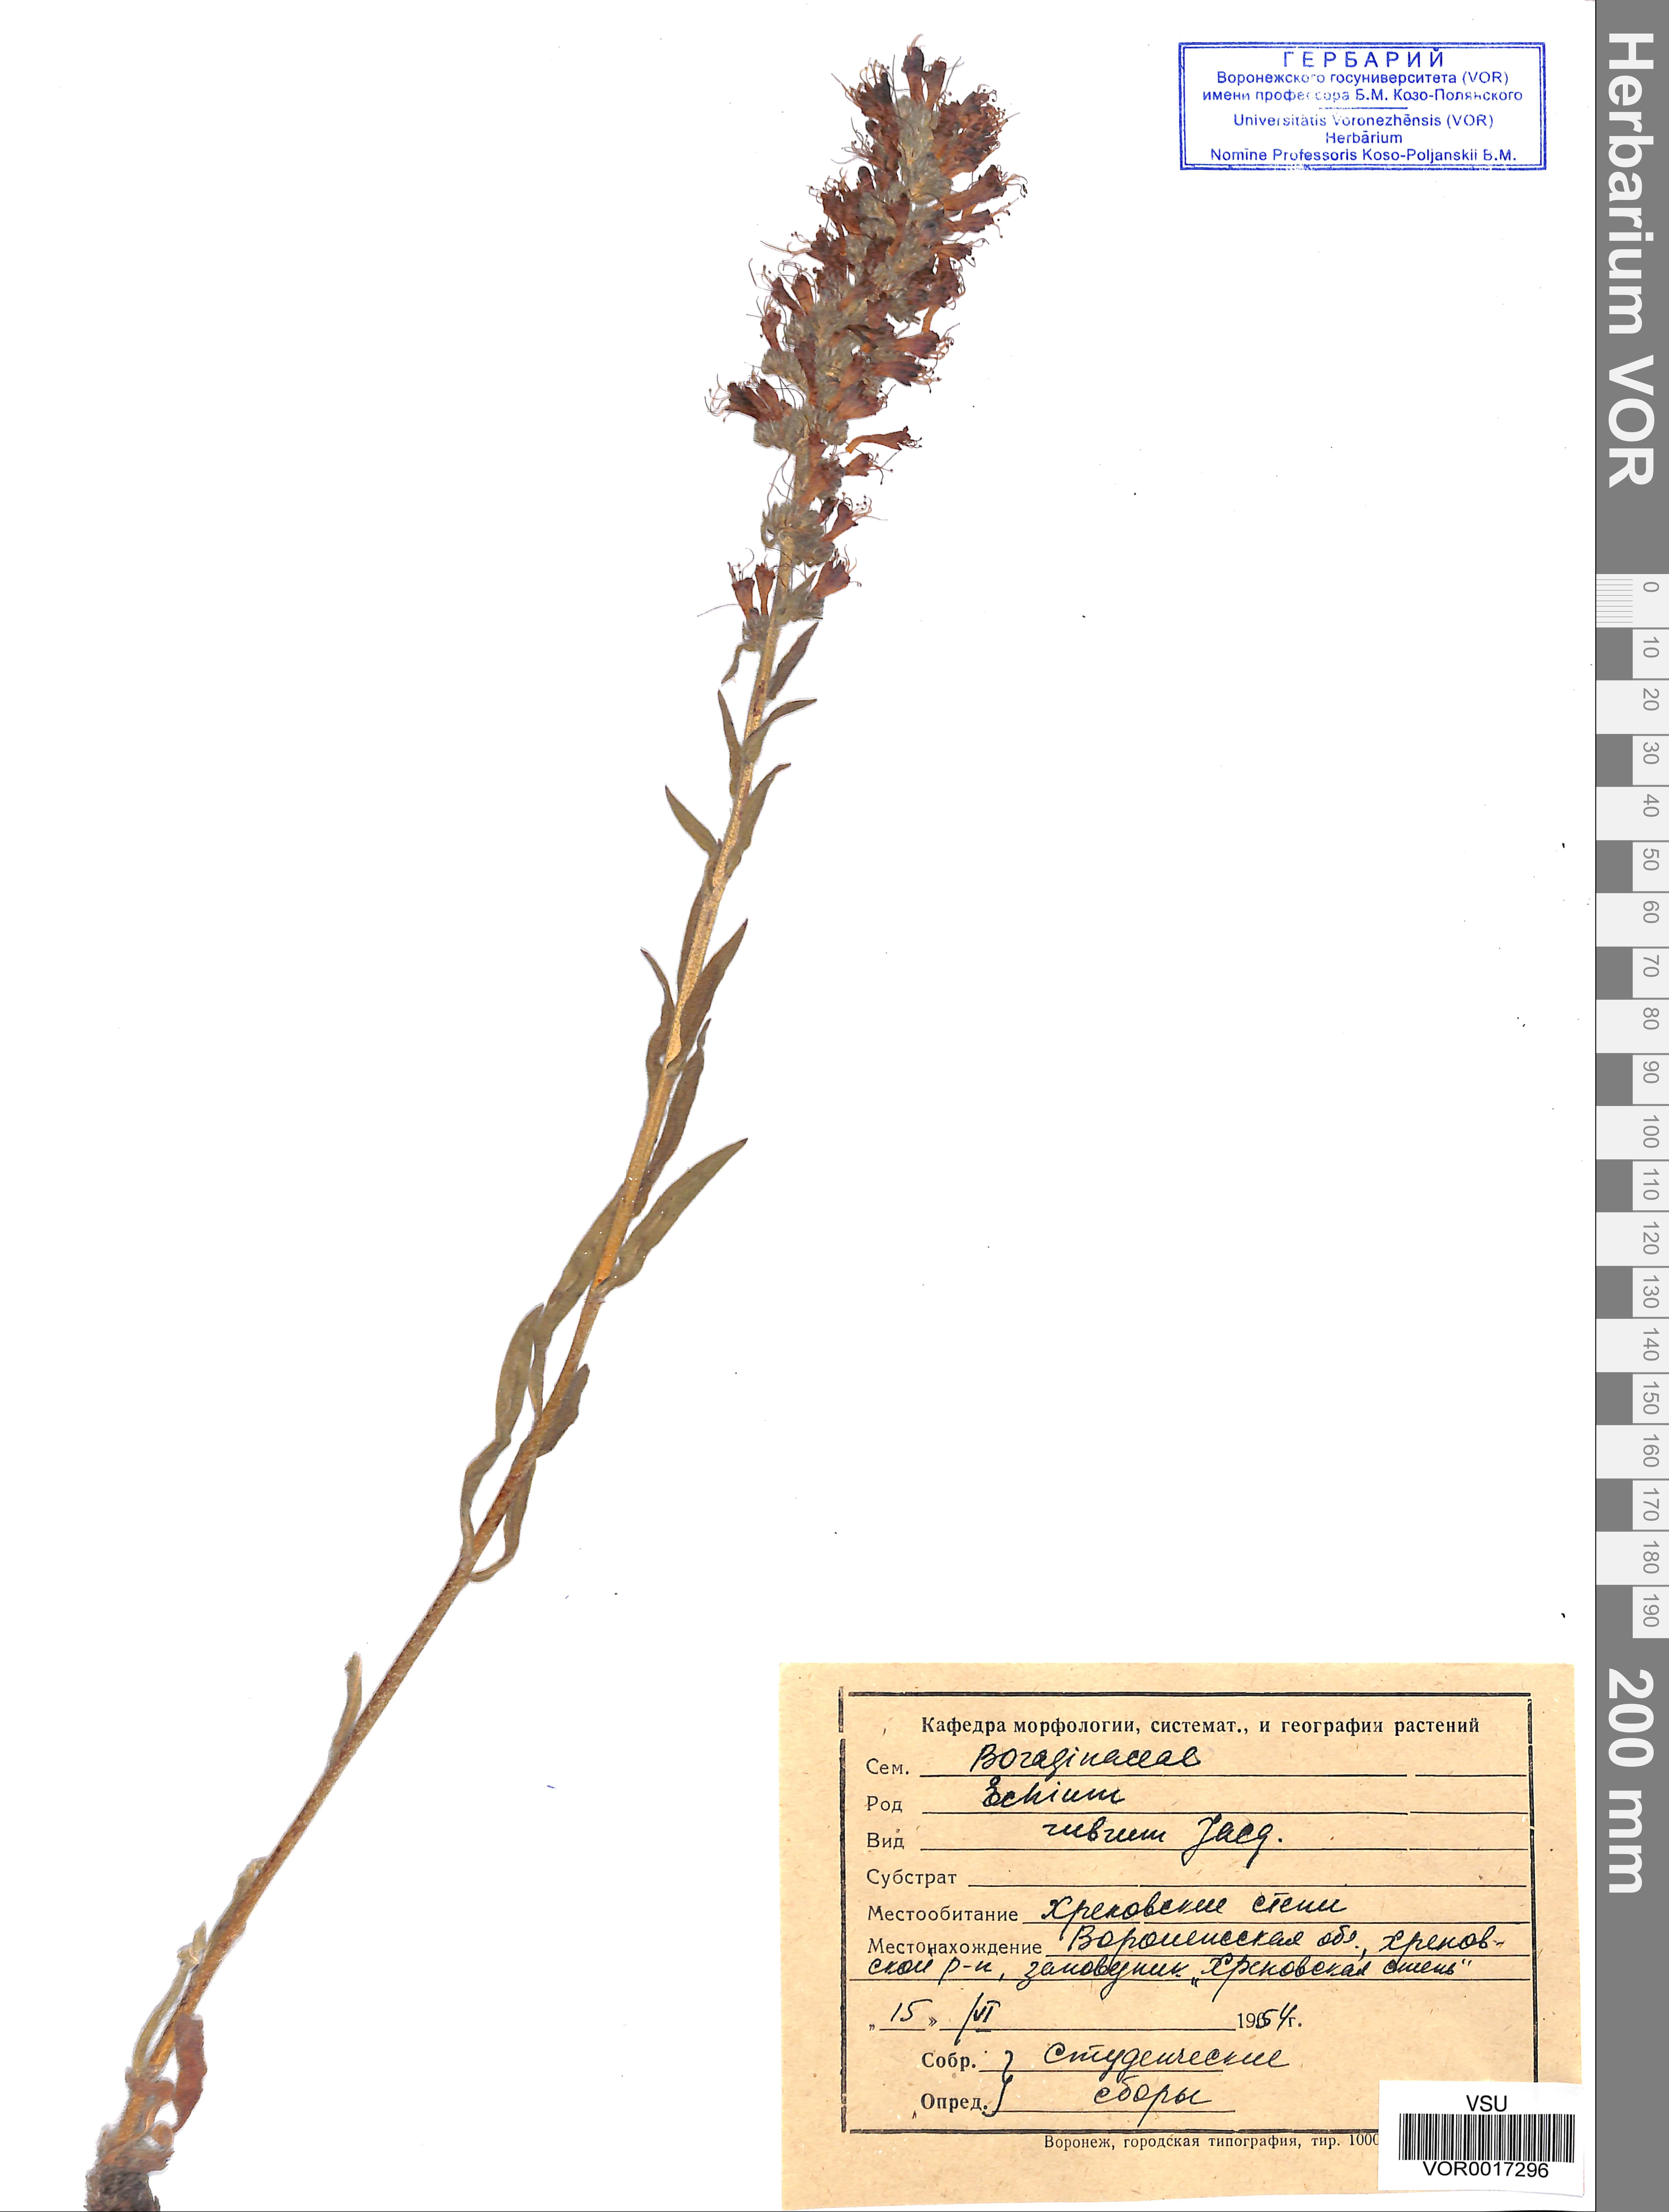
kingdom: Plantae
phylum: Tracheophyta
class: Magnoliopsida
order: Boraginales
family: Boraginaceae
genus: Pontechium
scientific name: Pontechium maculatum
